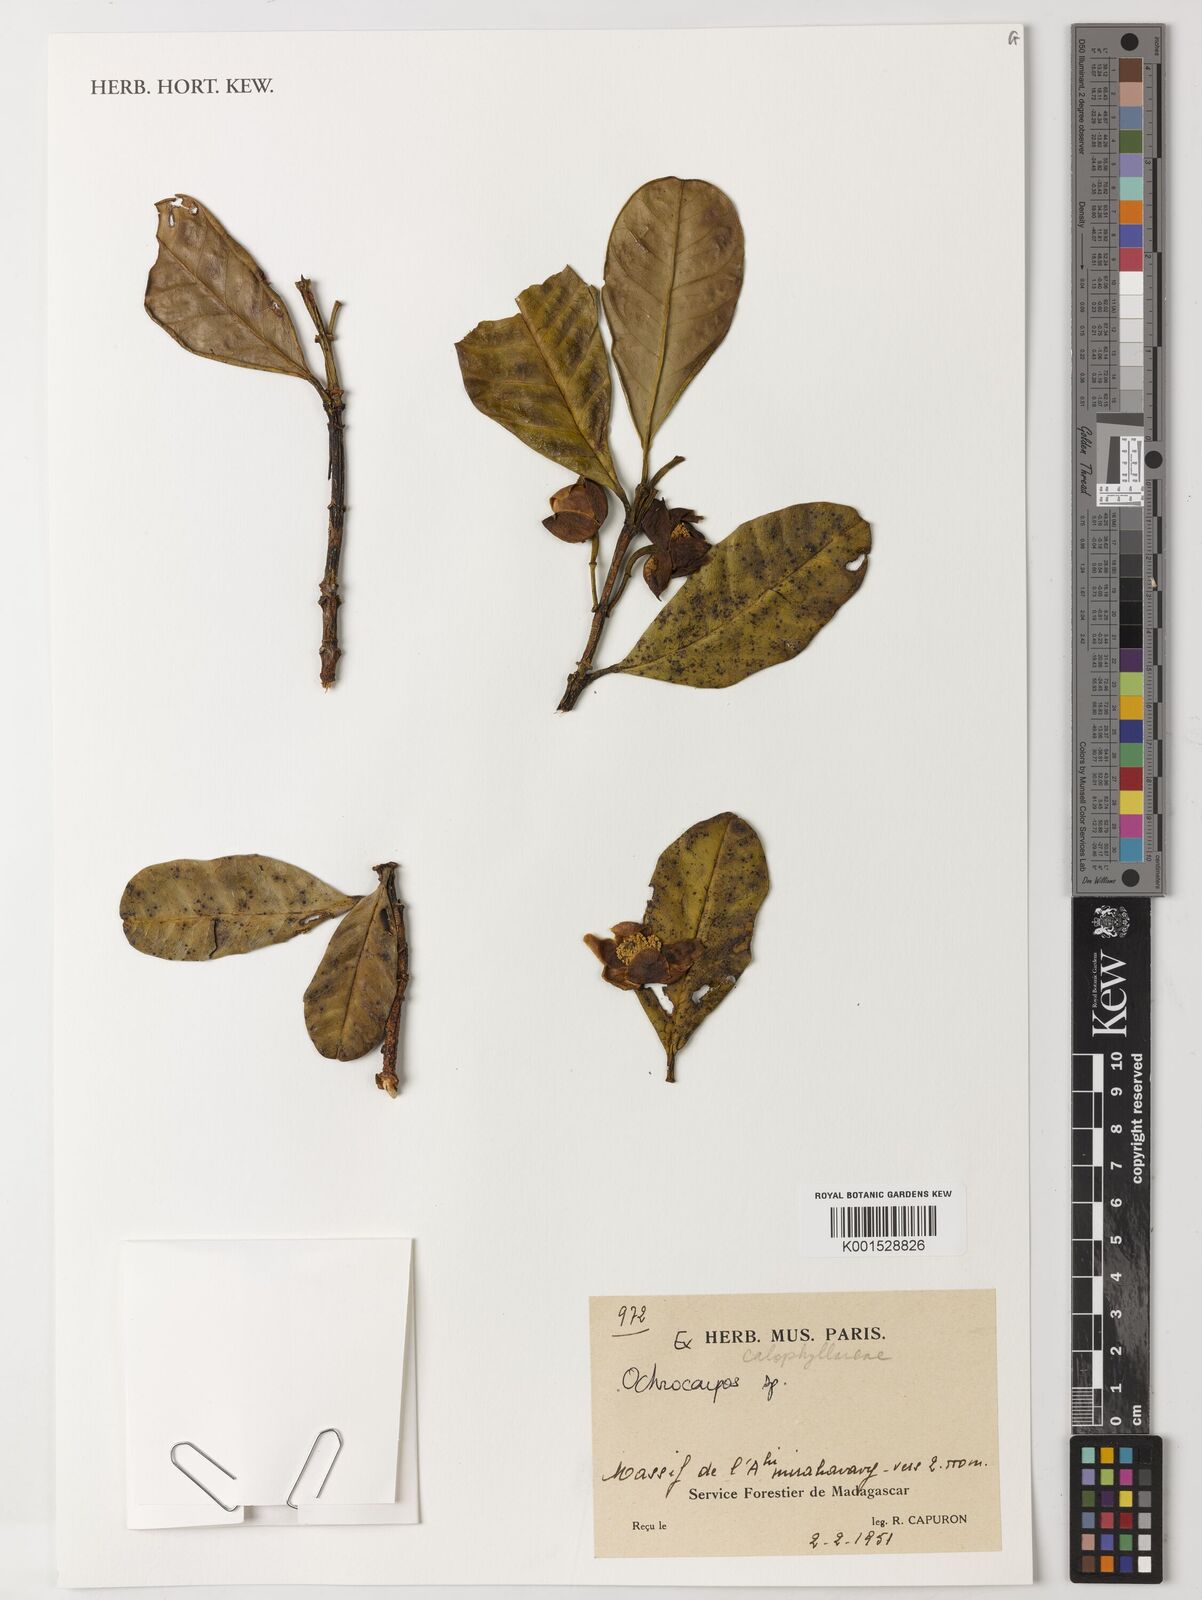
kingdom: Plantae
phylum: Tracheophyta
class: Magnoliopsida
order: Malpighiales
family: Calophyllaceae
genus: Mammea
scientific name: Mammea
